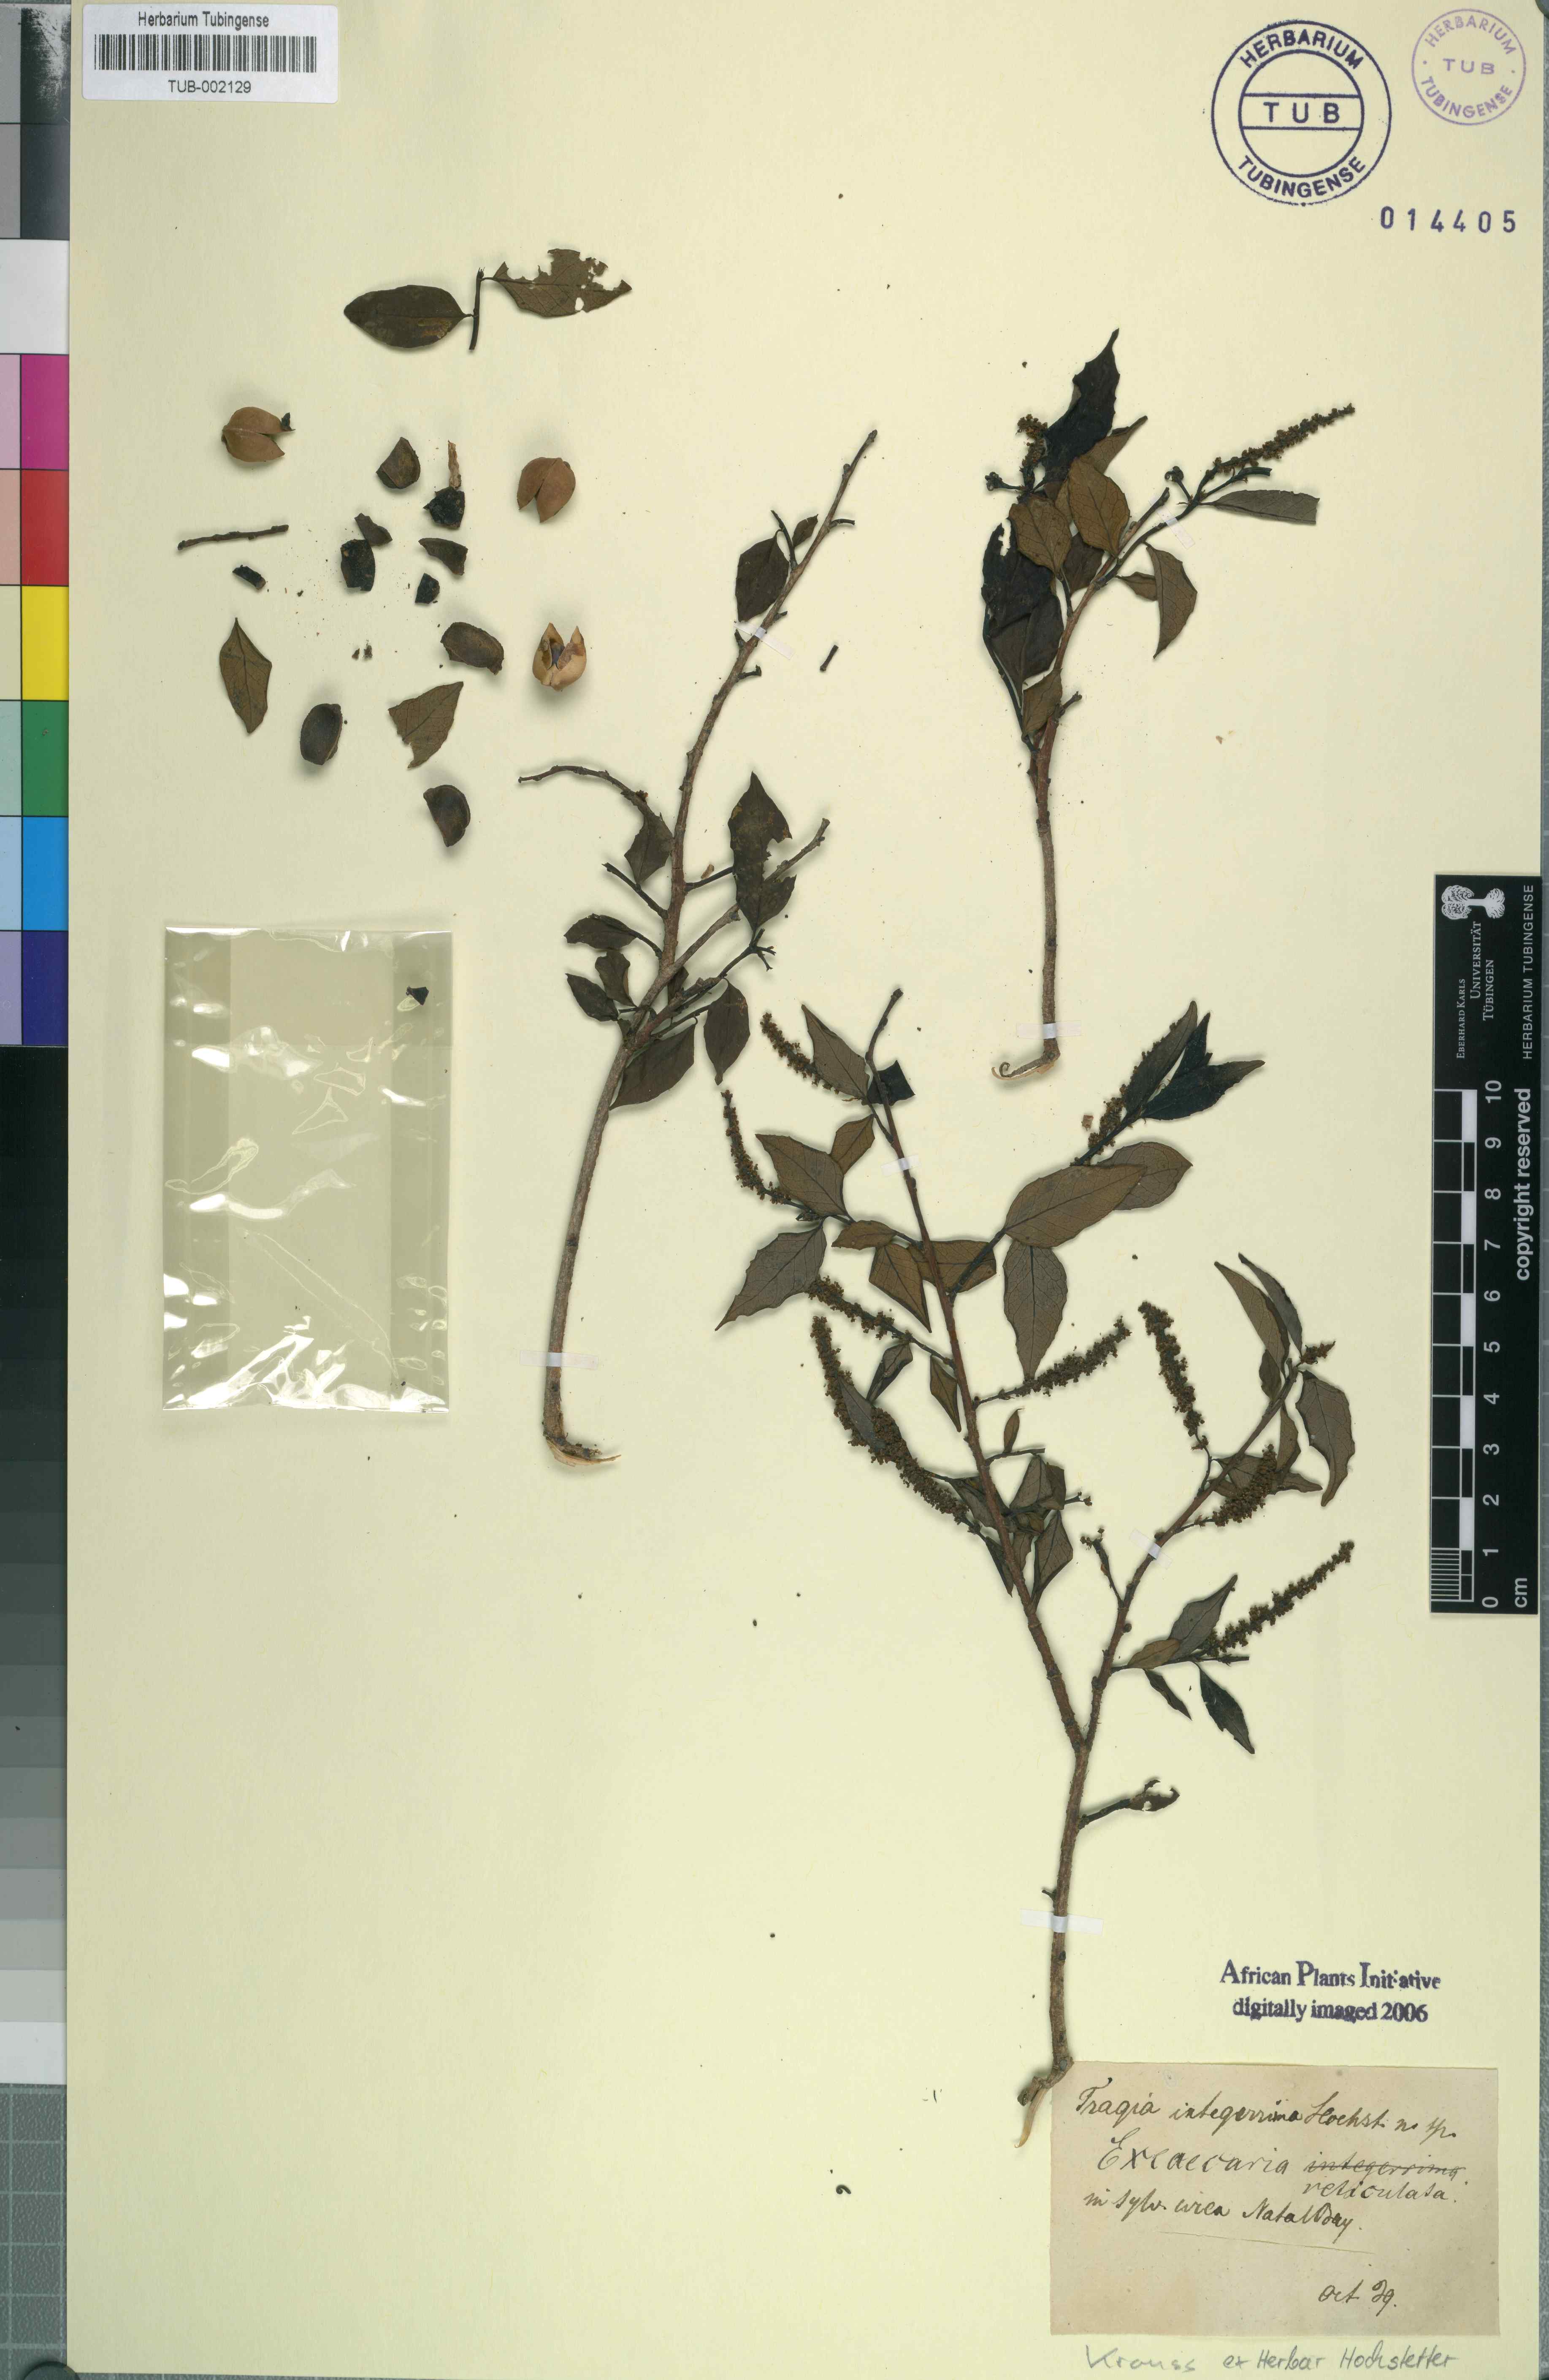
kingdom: Plantae
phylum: Tracheophyta
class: Magnoliopsida
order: Malpighiales
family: Euphorbiaceae
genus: Sclerocroton
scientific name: Sclerocroton integerrimus
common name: Duiker berry
